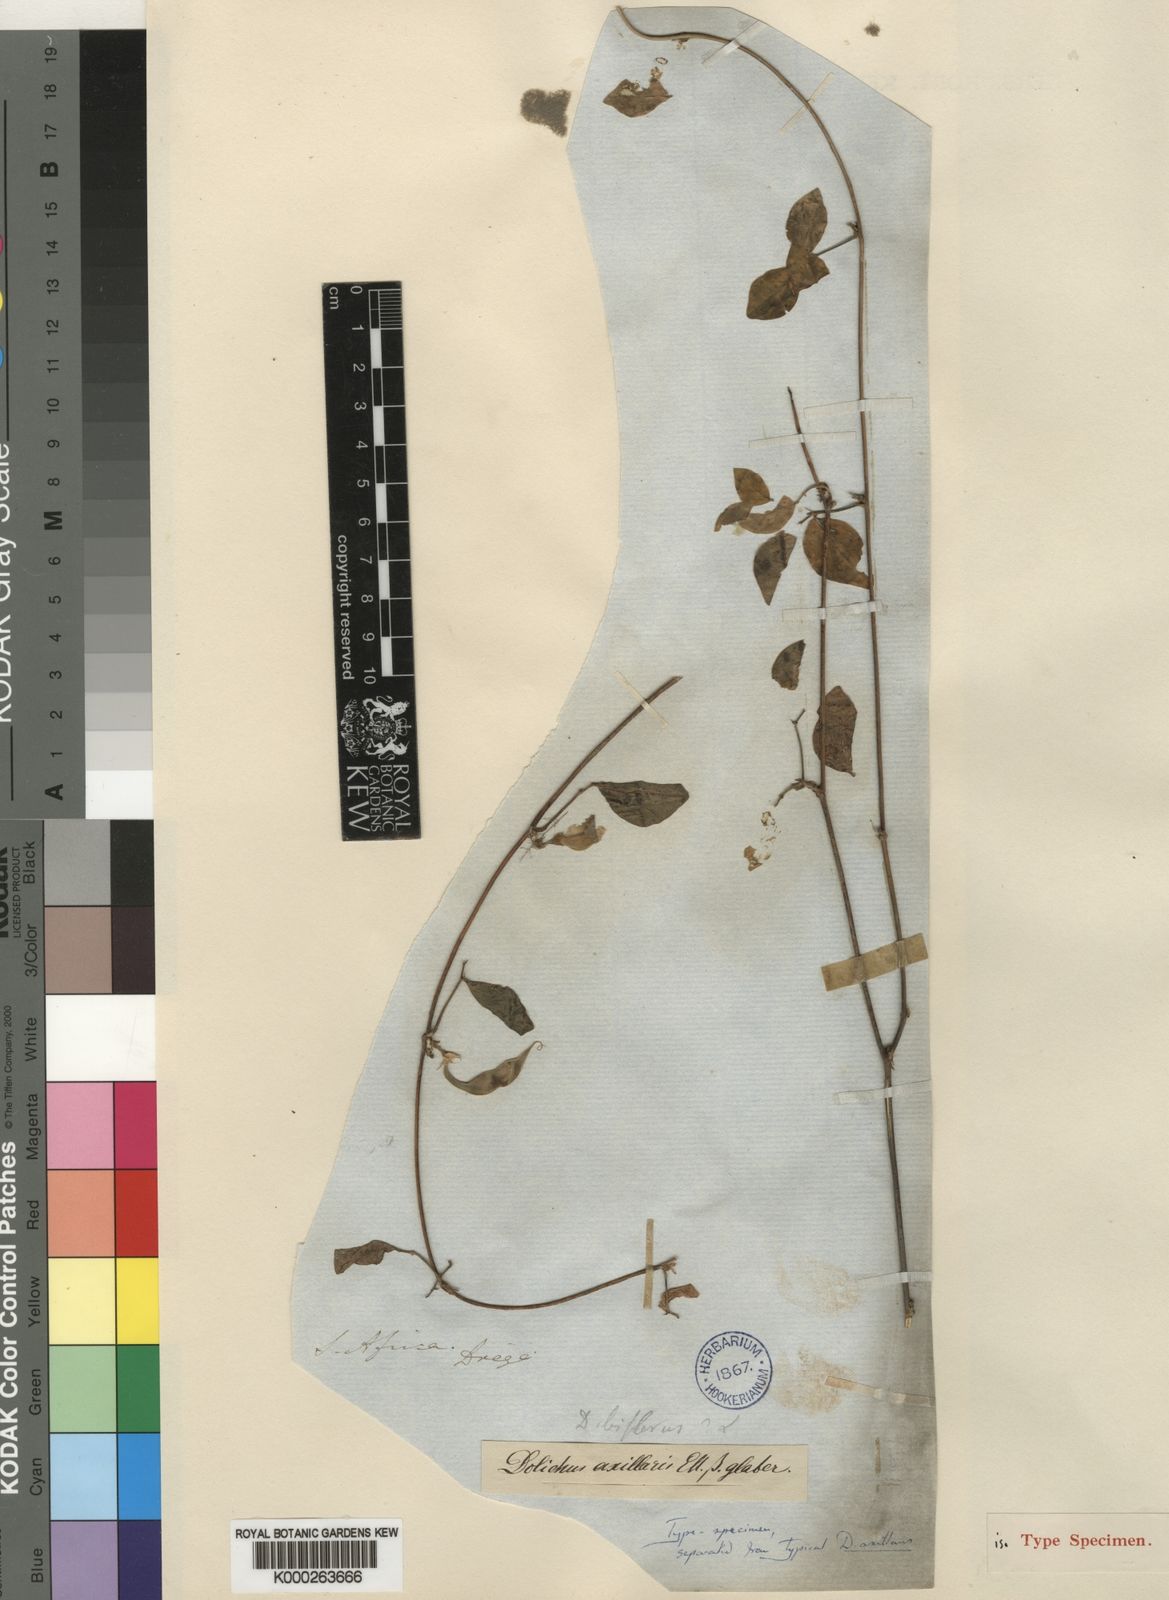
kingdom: Plantae
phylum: Tracheophyta
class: Magnoliopsida
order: Fabales
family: Fabaceae
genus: Macrotyloma
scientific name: Macrotyloma axillare
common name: Perennial horsegram
